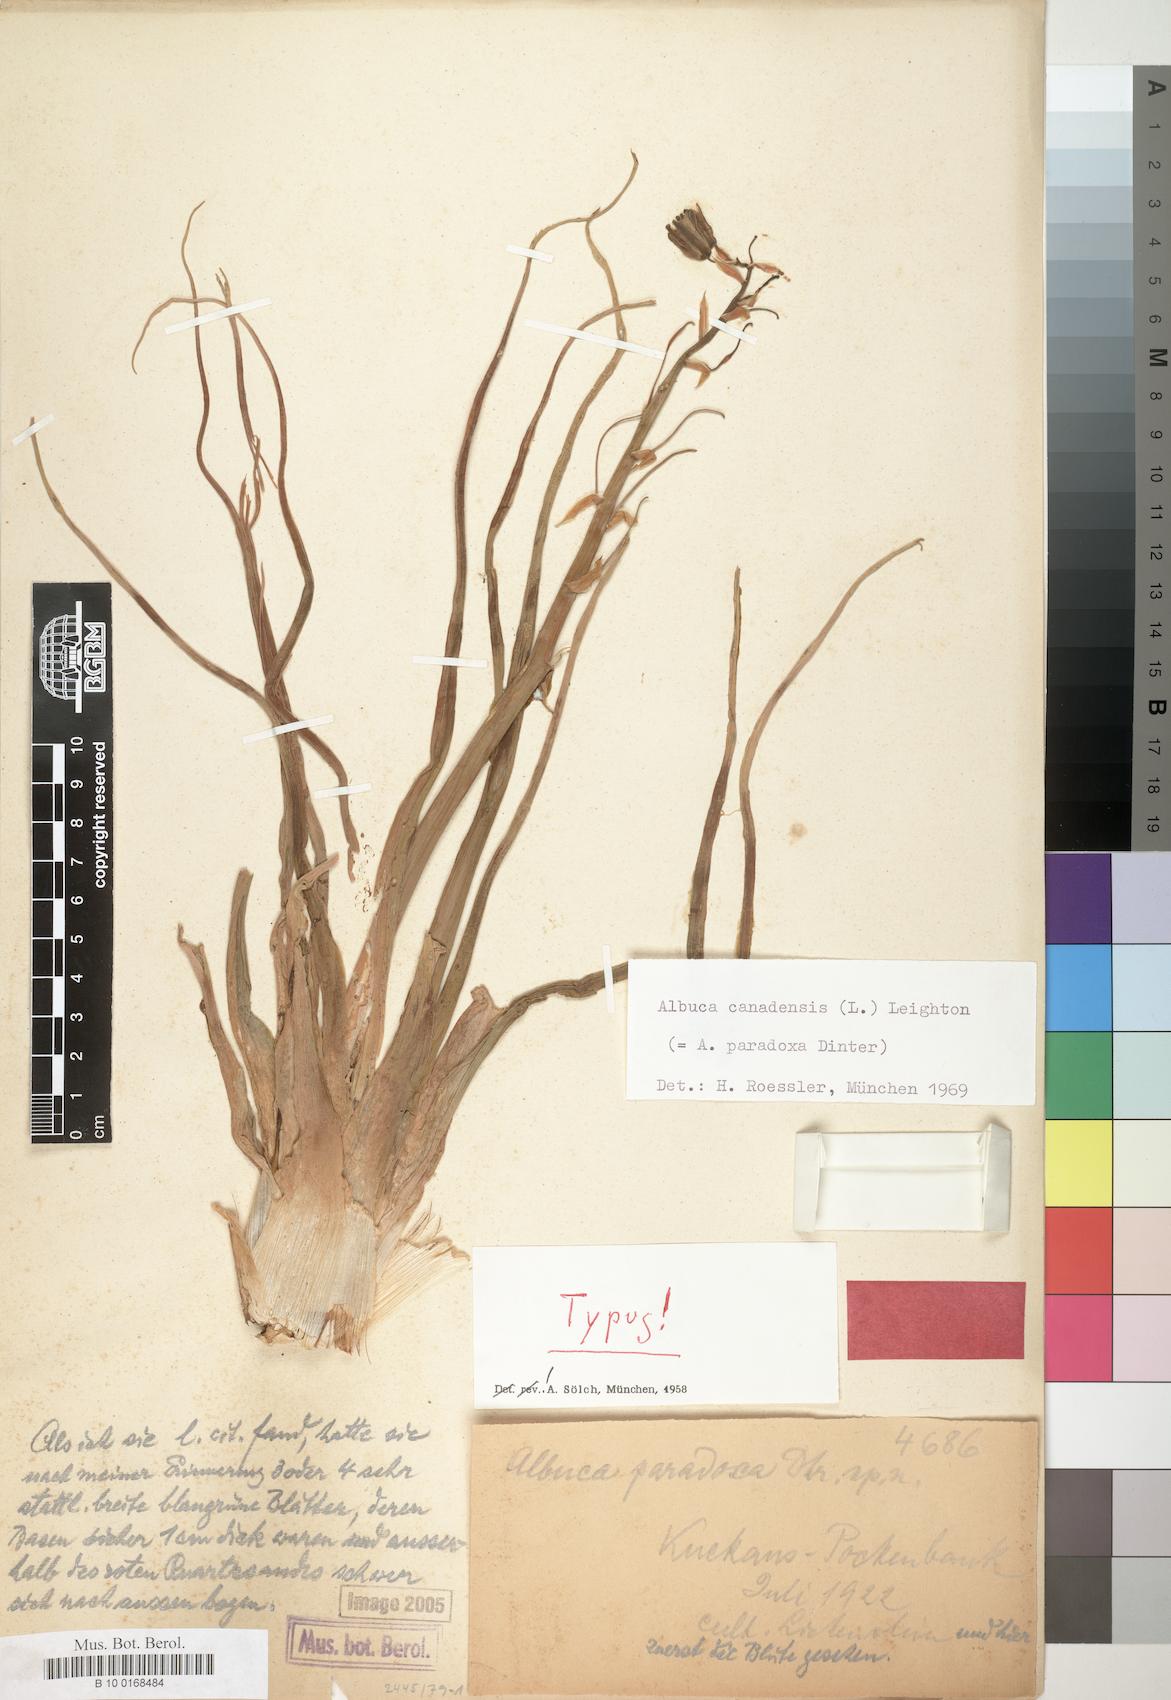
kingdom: Plantae
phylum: Tracheophyta
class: Liliopsida
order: Asparagales
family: Asparagaceae
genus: Albuca
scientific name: Albuca canadensis
